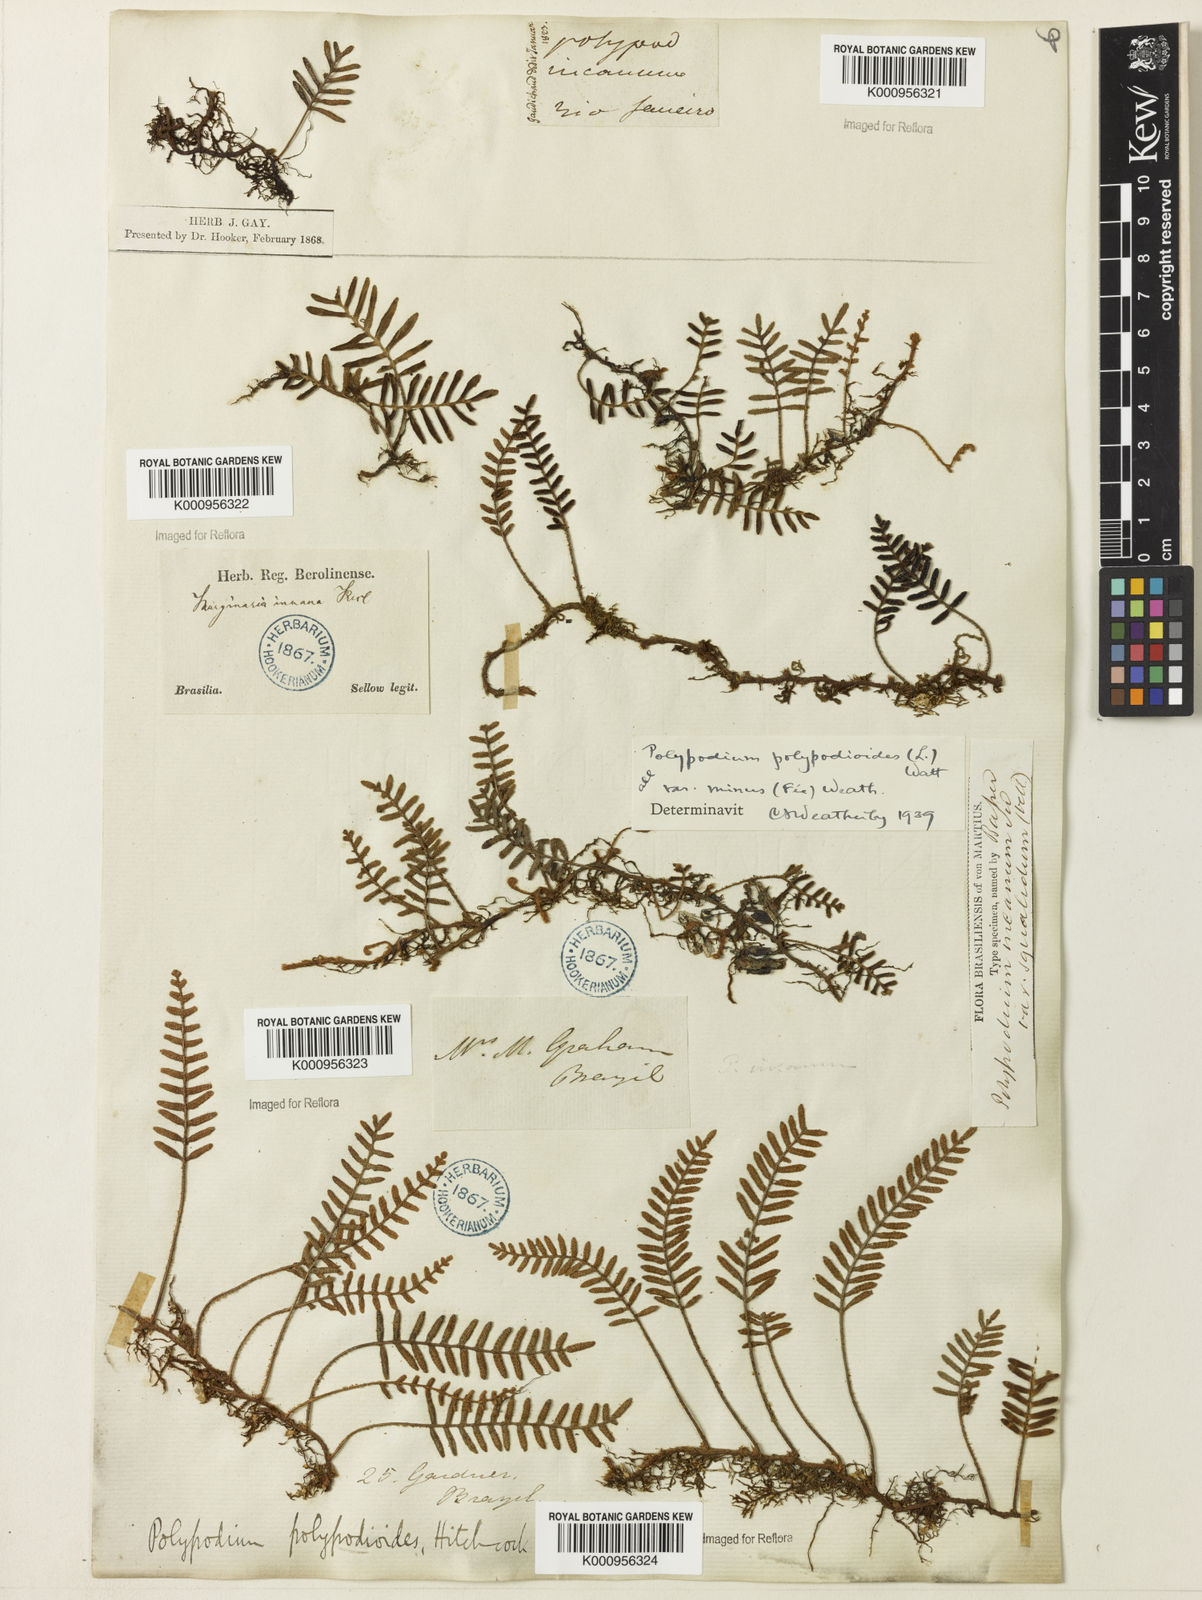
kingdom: Plantae
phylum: Tracheophyta
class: Polypodiopsida
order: Polypodiales
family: Polypodiaceae
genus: Pleopeltis
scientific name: Pleopeltis polypodioides
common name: Resurrection fern
